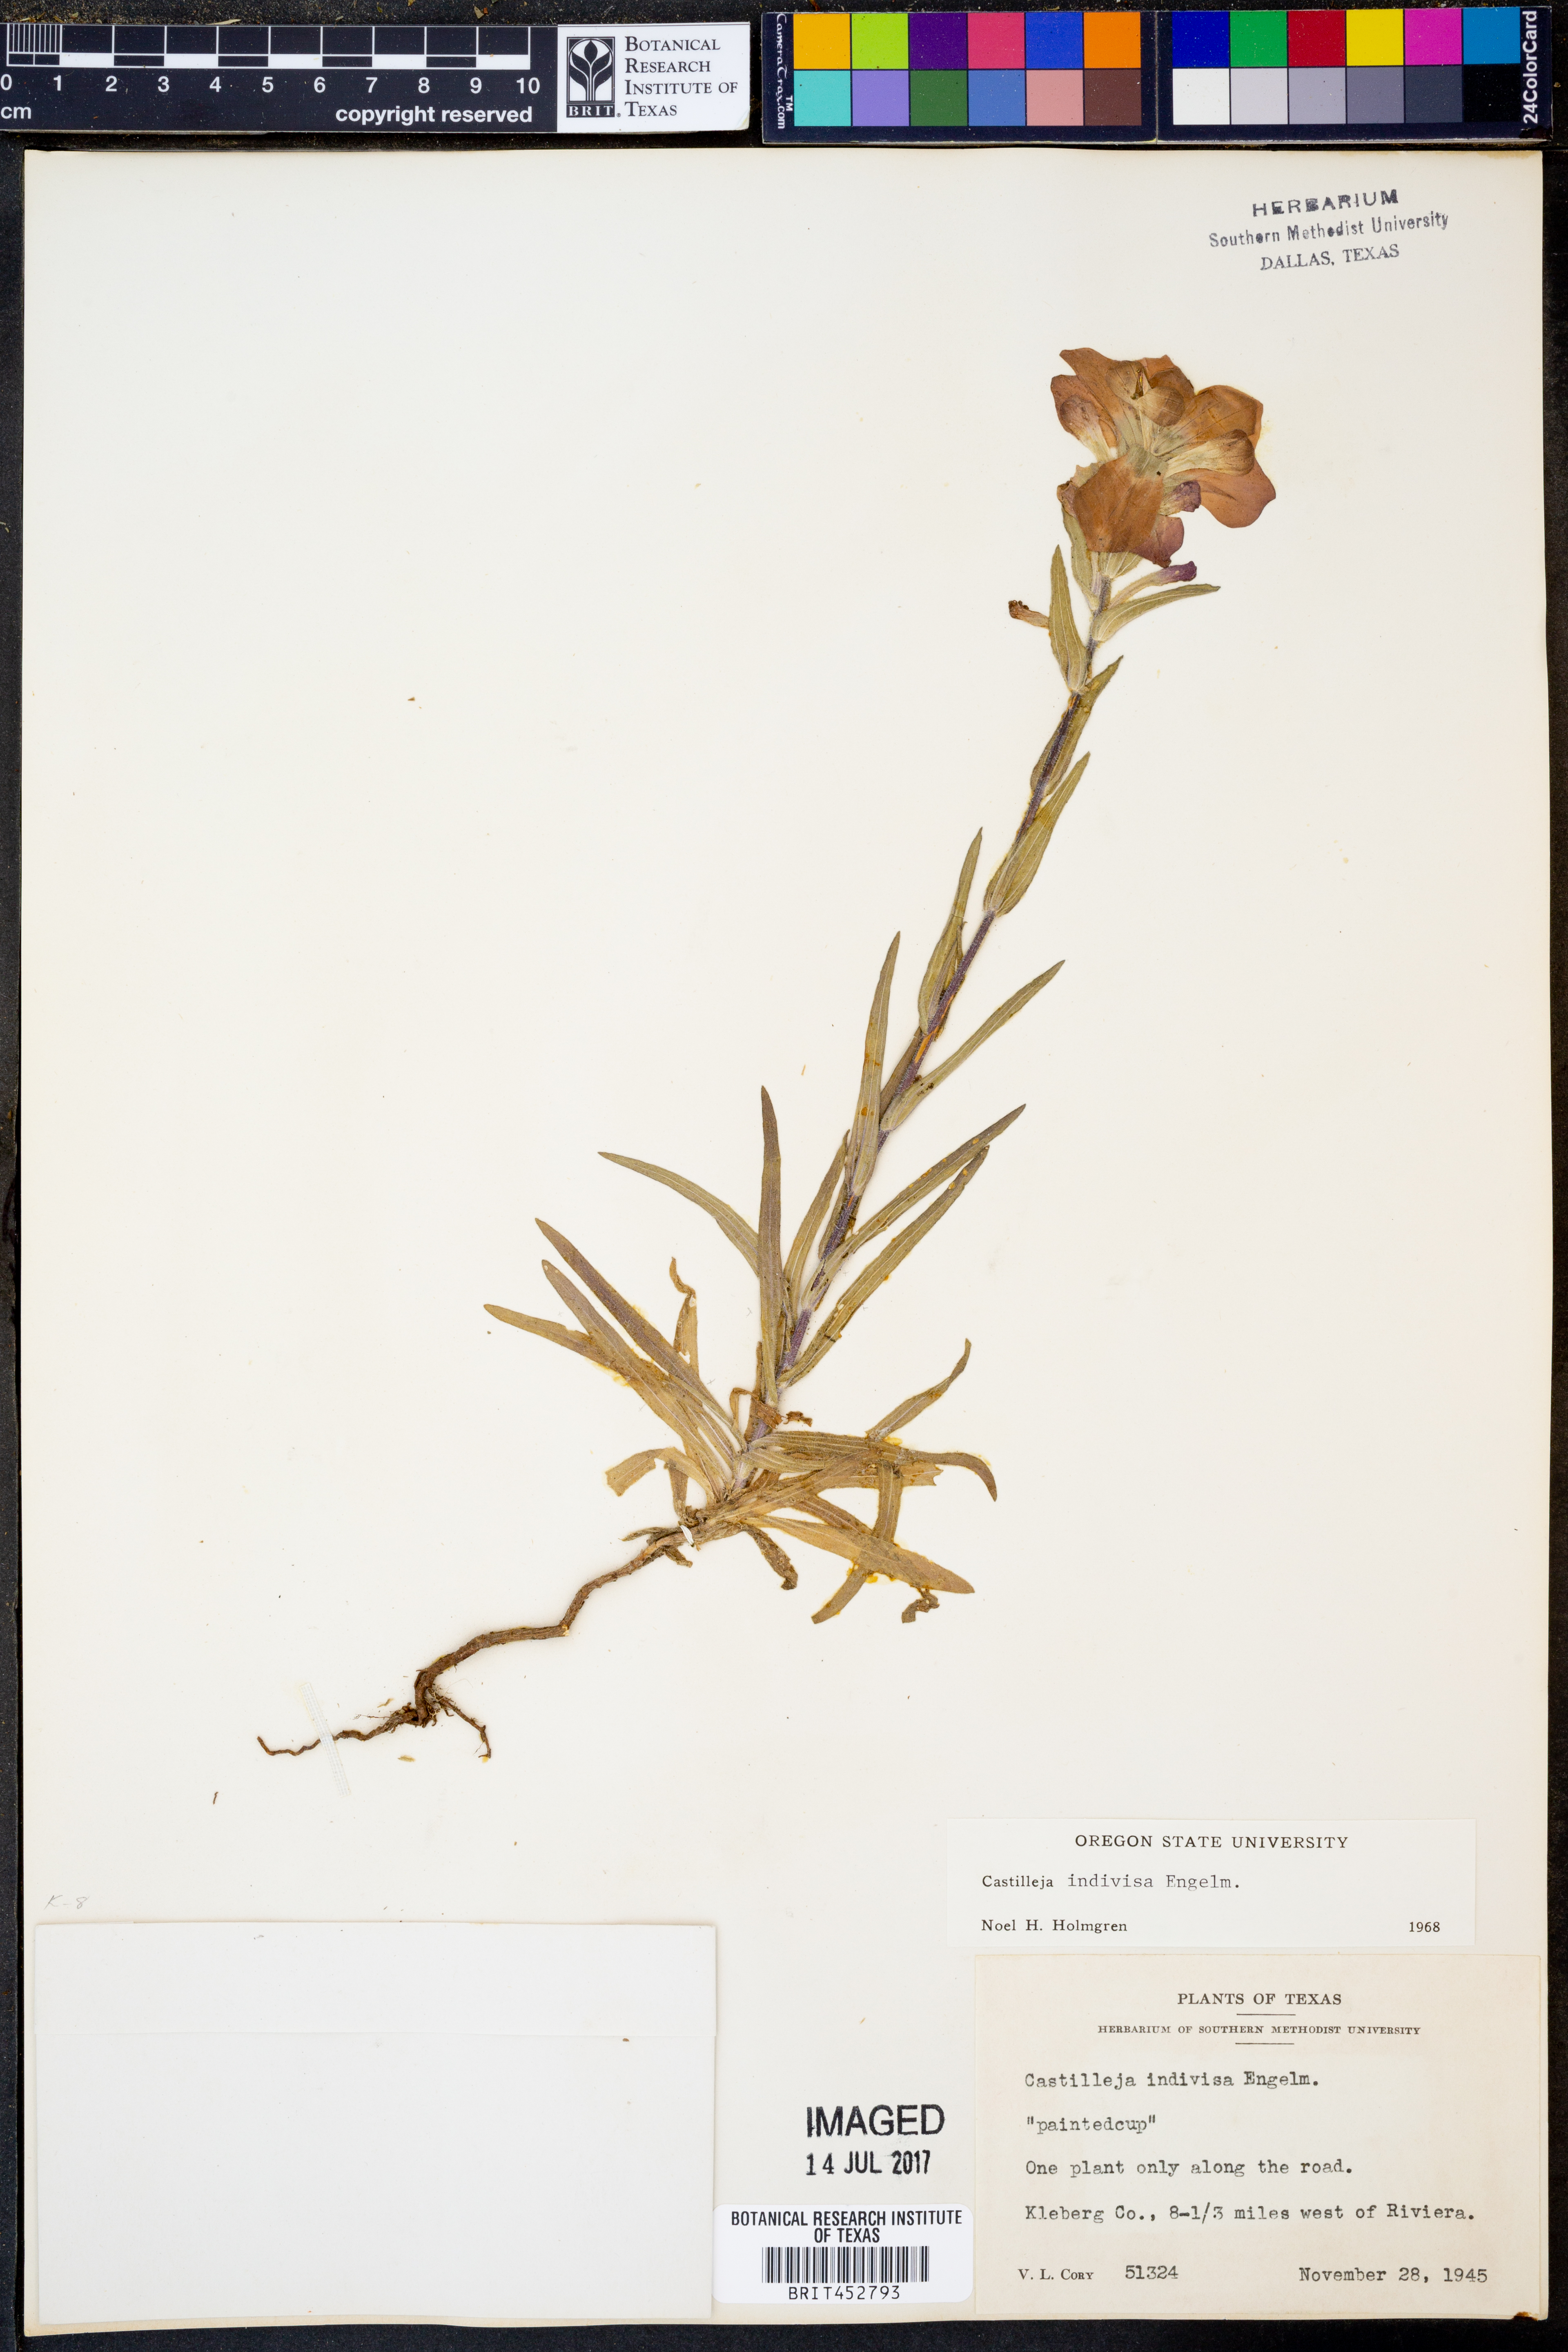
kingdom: Plantae
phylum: Tracheophyta
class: Magnoliopsida
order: Lamiales
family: Orobanchaceae
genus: Castilleja
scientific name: Castilleja indivisa
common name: Texas paintbrush
